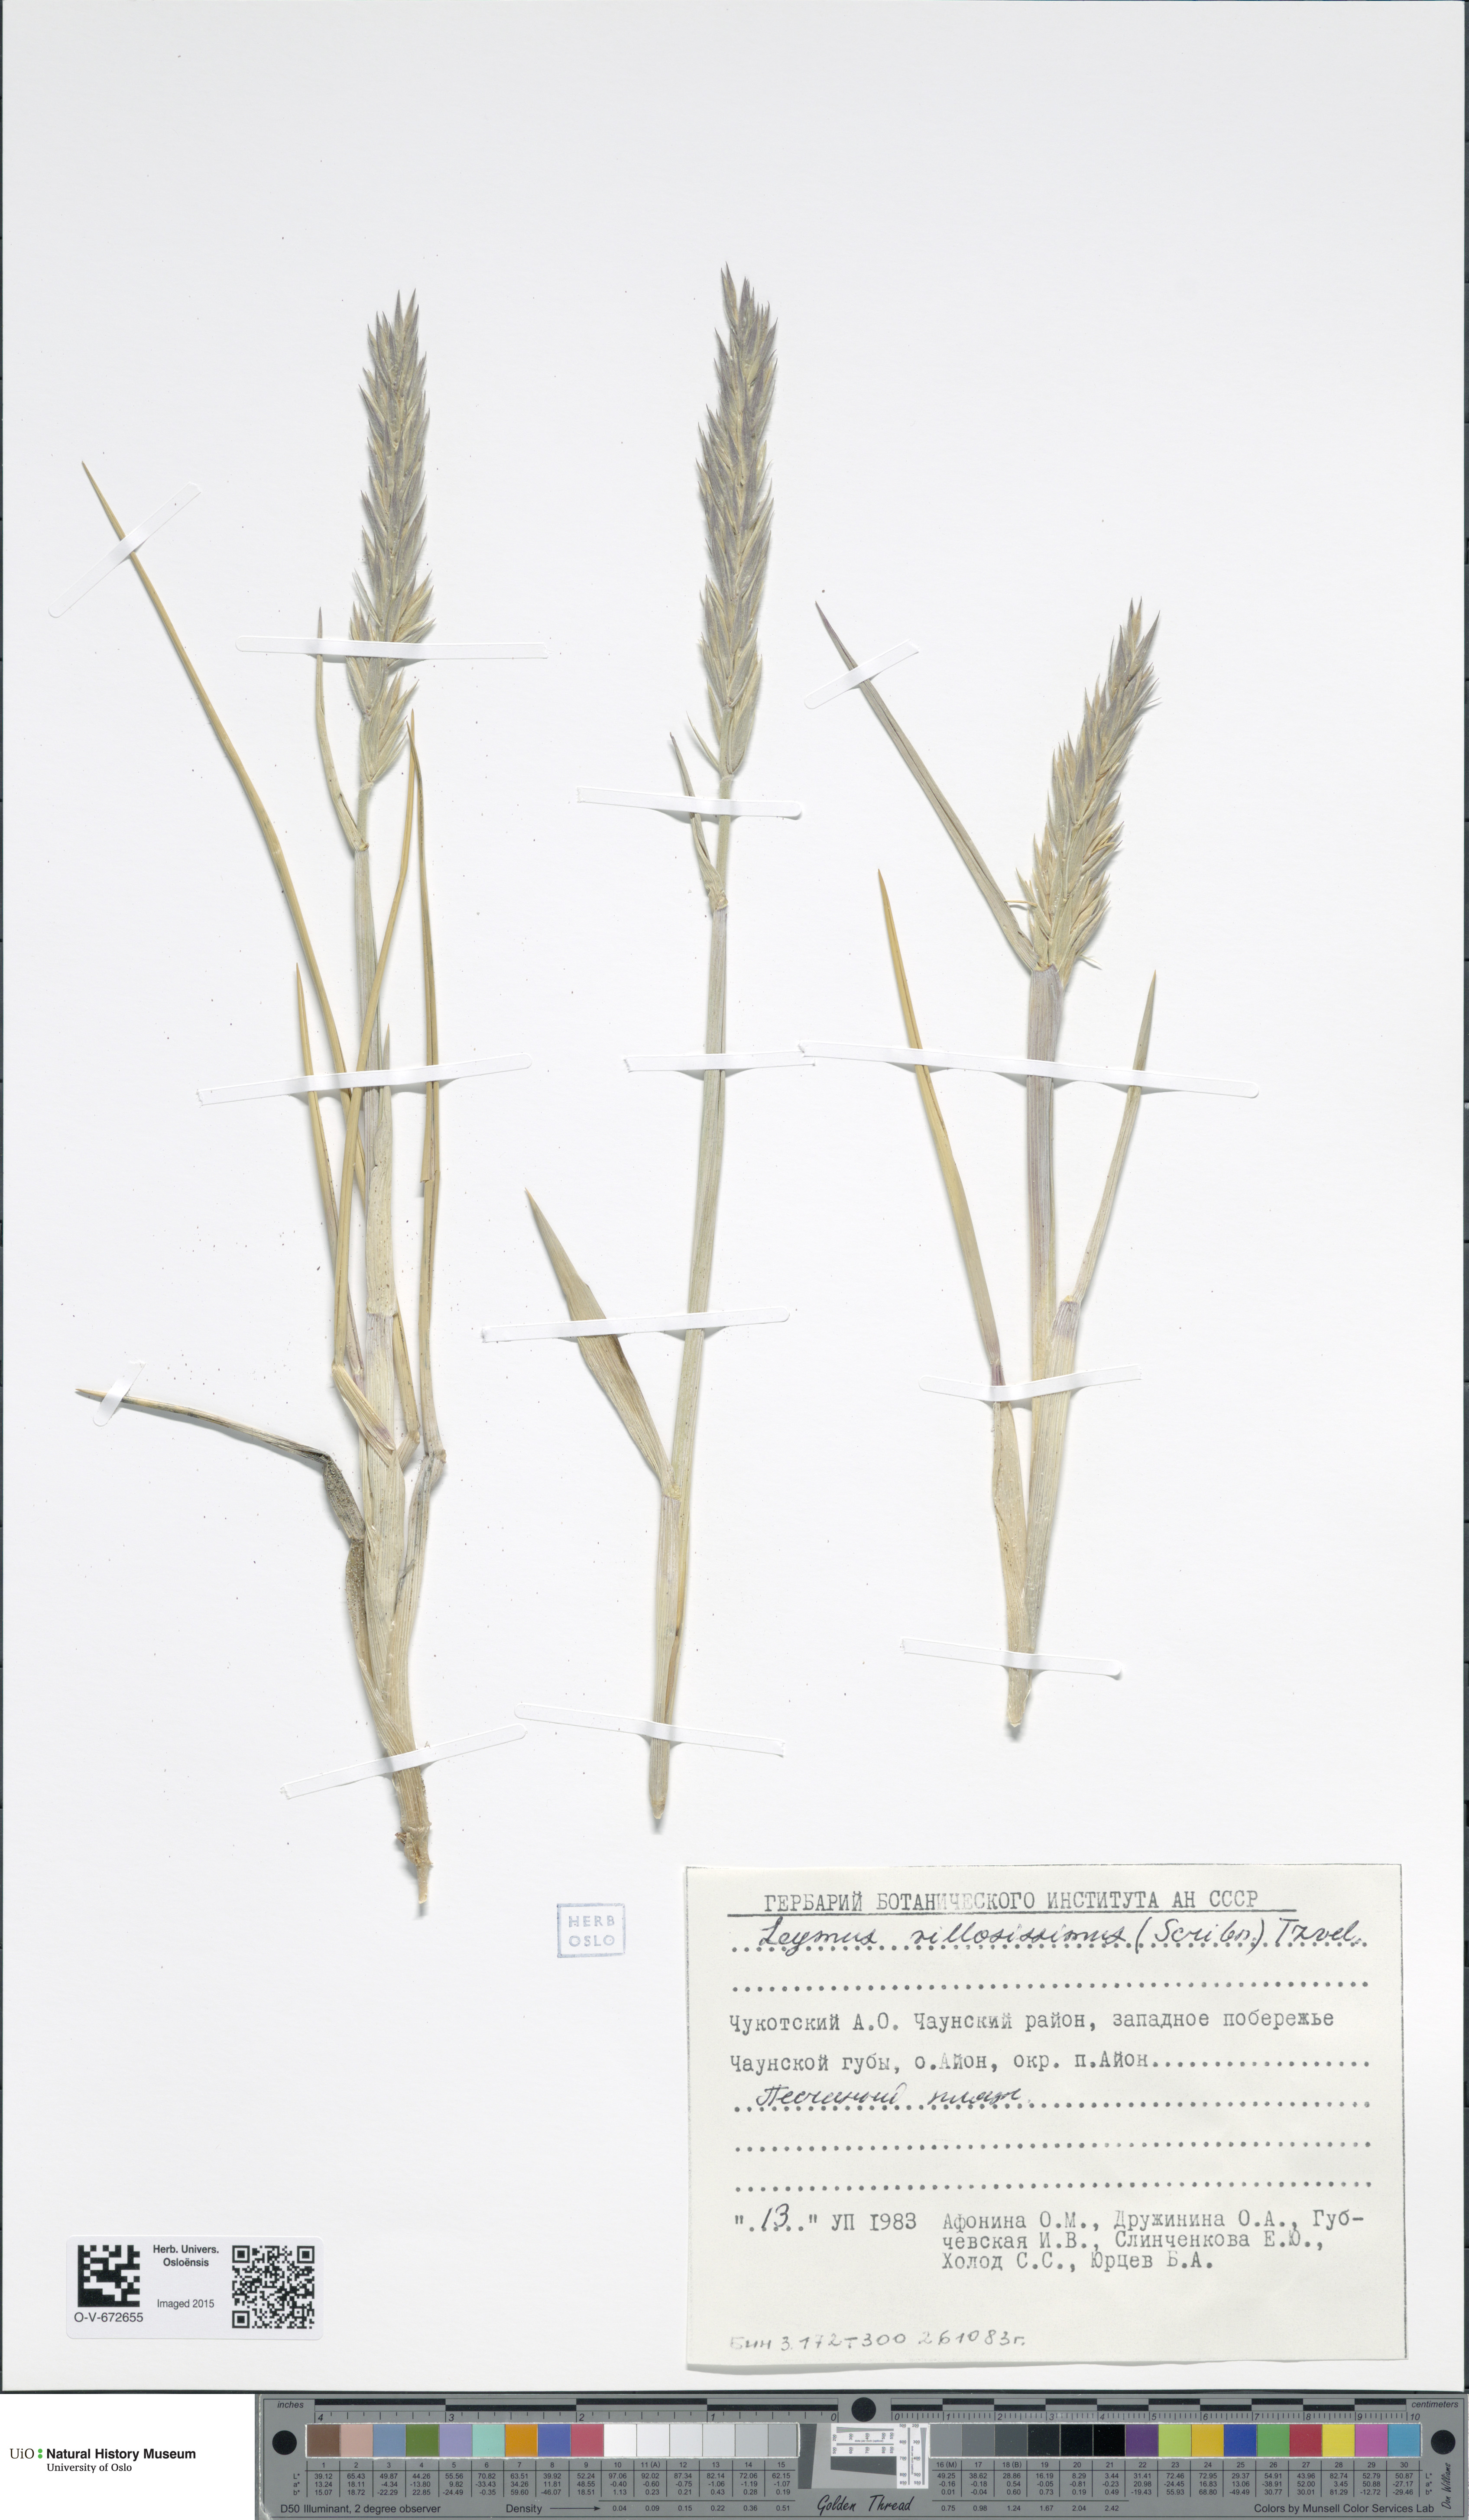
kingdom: Plantae
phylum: Tracheophyta
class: Liliopsida
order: Poales
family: Poaceae
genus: Leymus
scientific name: Leymus villosissimus
